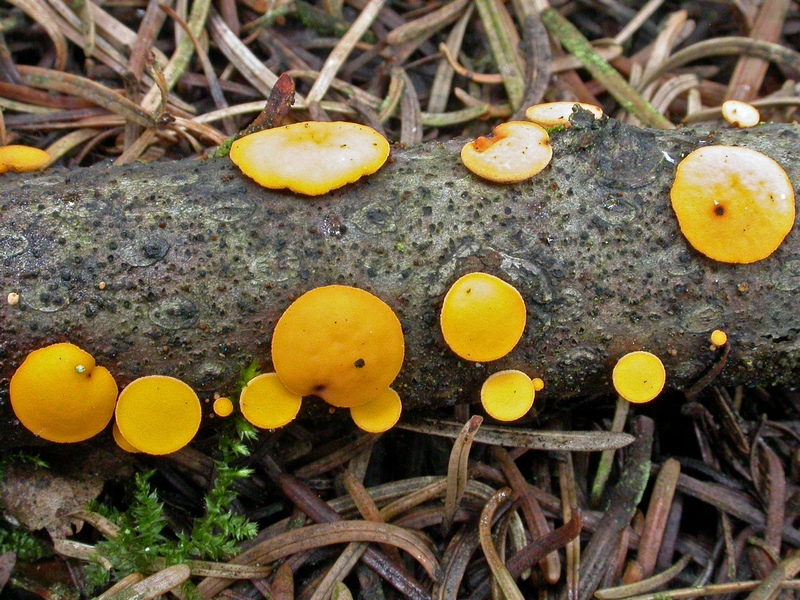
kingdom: Fungi
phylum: Ascomycota
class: Pezizomycetes
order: Pezizales
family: Sarcoscyphaceae
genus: Pithya
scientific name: Pithya vulgaris
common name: stor dukatbæger
